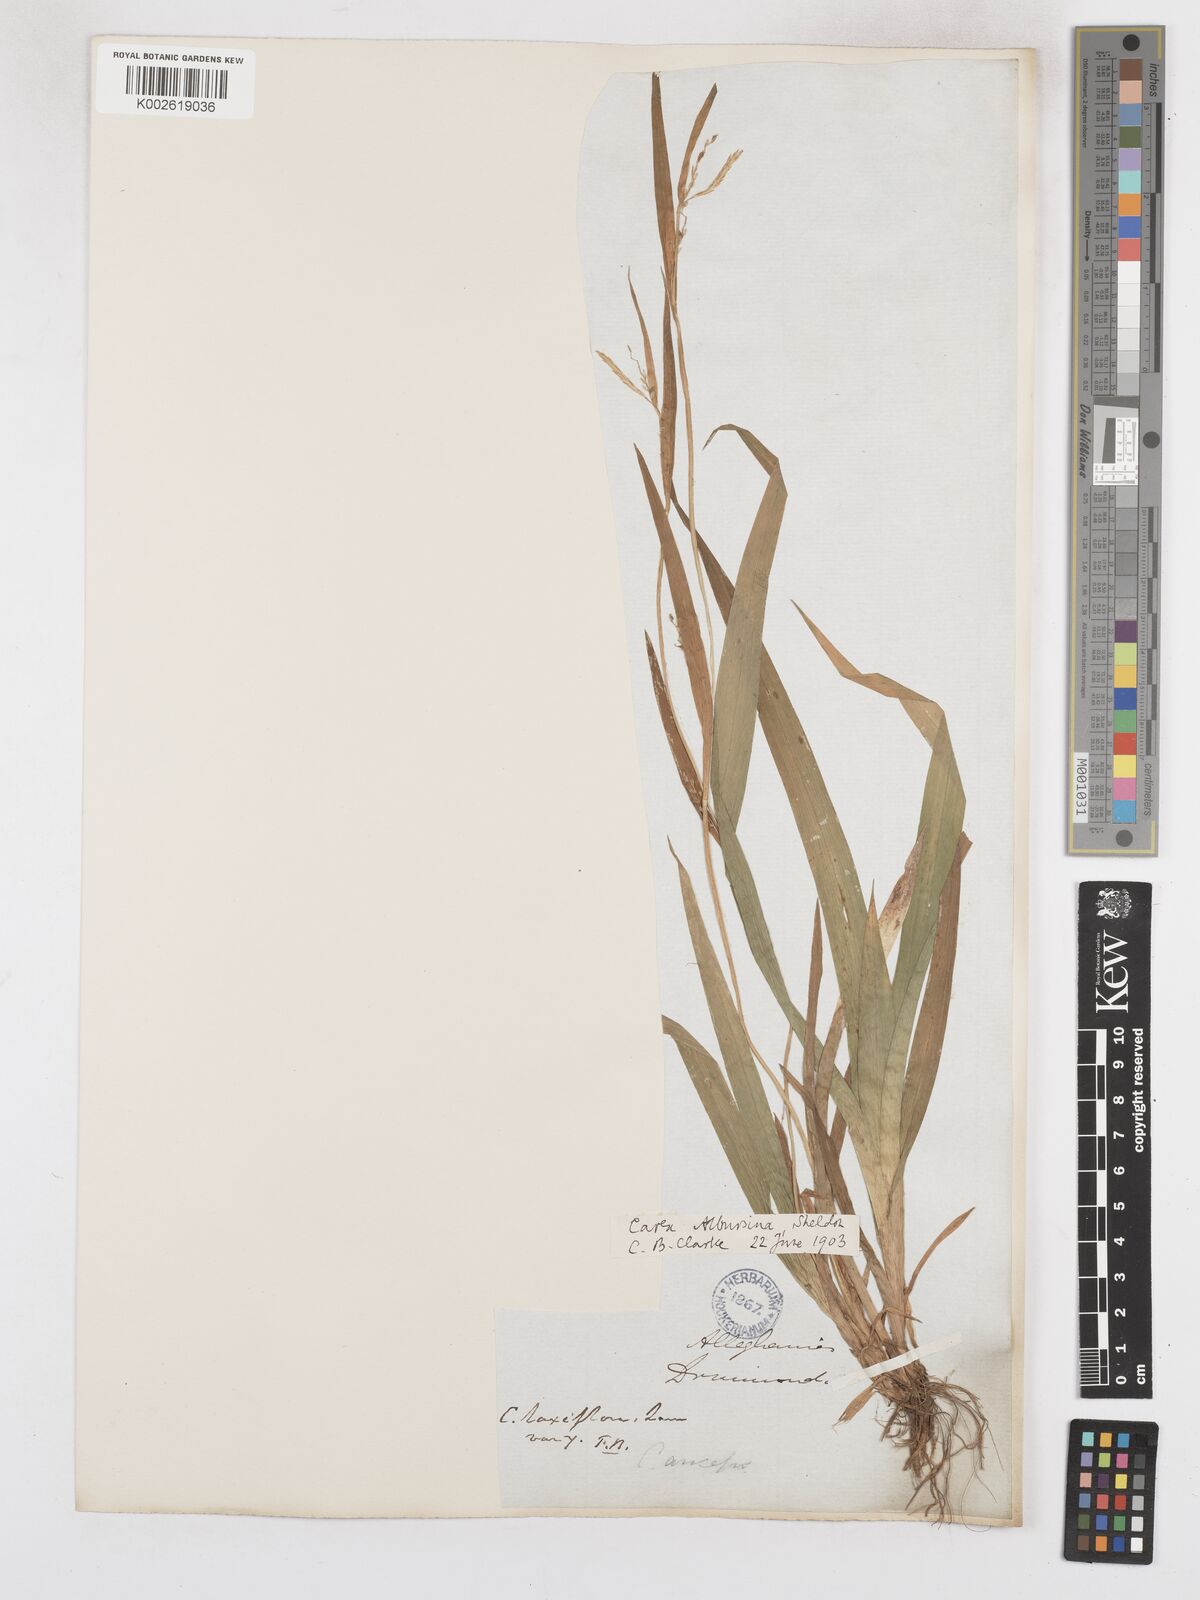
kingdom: Plantae
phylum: Tracheophyta
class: Liliopsida
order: Poales
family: Cyperaceae
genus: Carex
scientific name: Carex albursina
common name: Blunt-scale wood sedge
